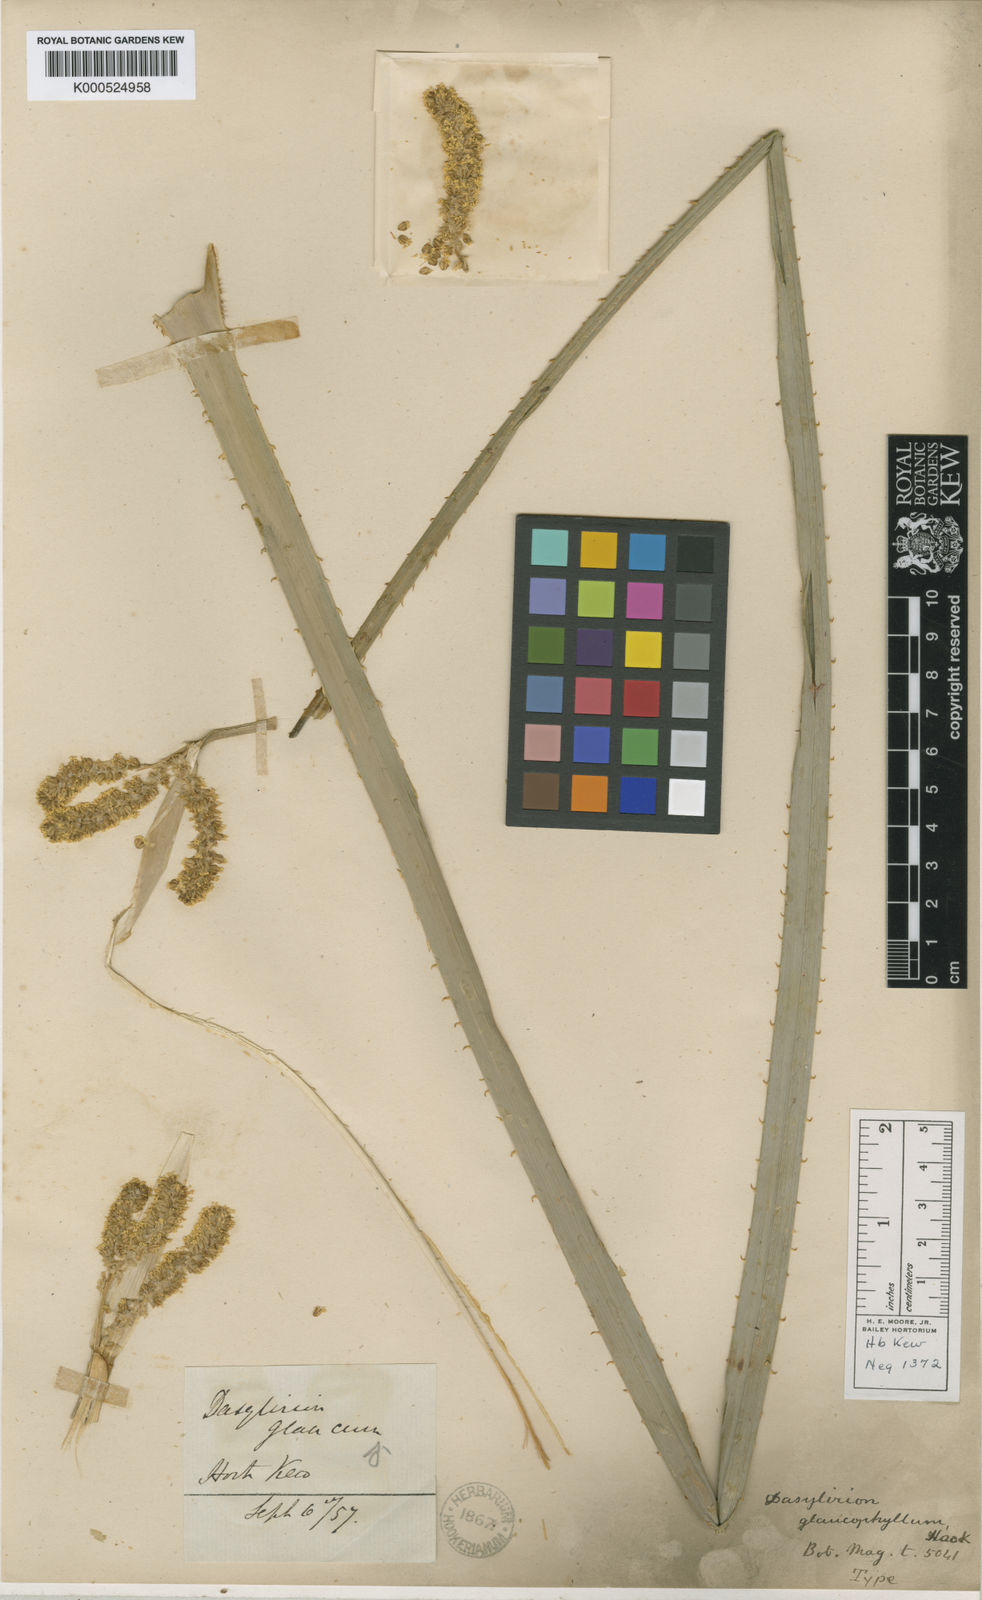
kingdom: Plantae
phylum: Tracheophyta
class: Liliopsida
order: Asparagales
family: Asparagaceae
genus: Dasylirion
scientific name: Dasylirion glaucophyllum
